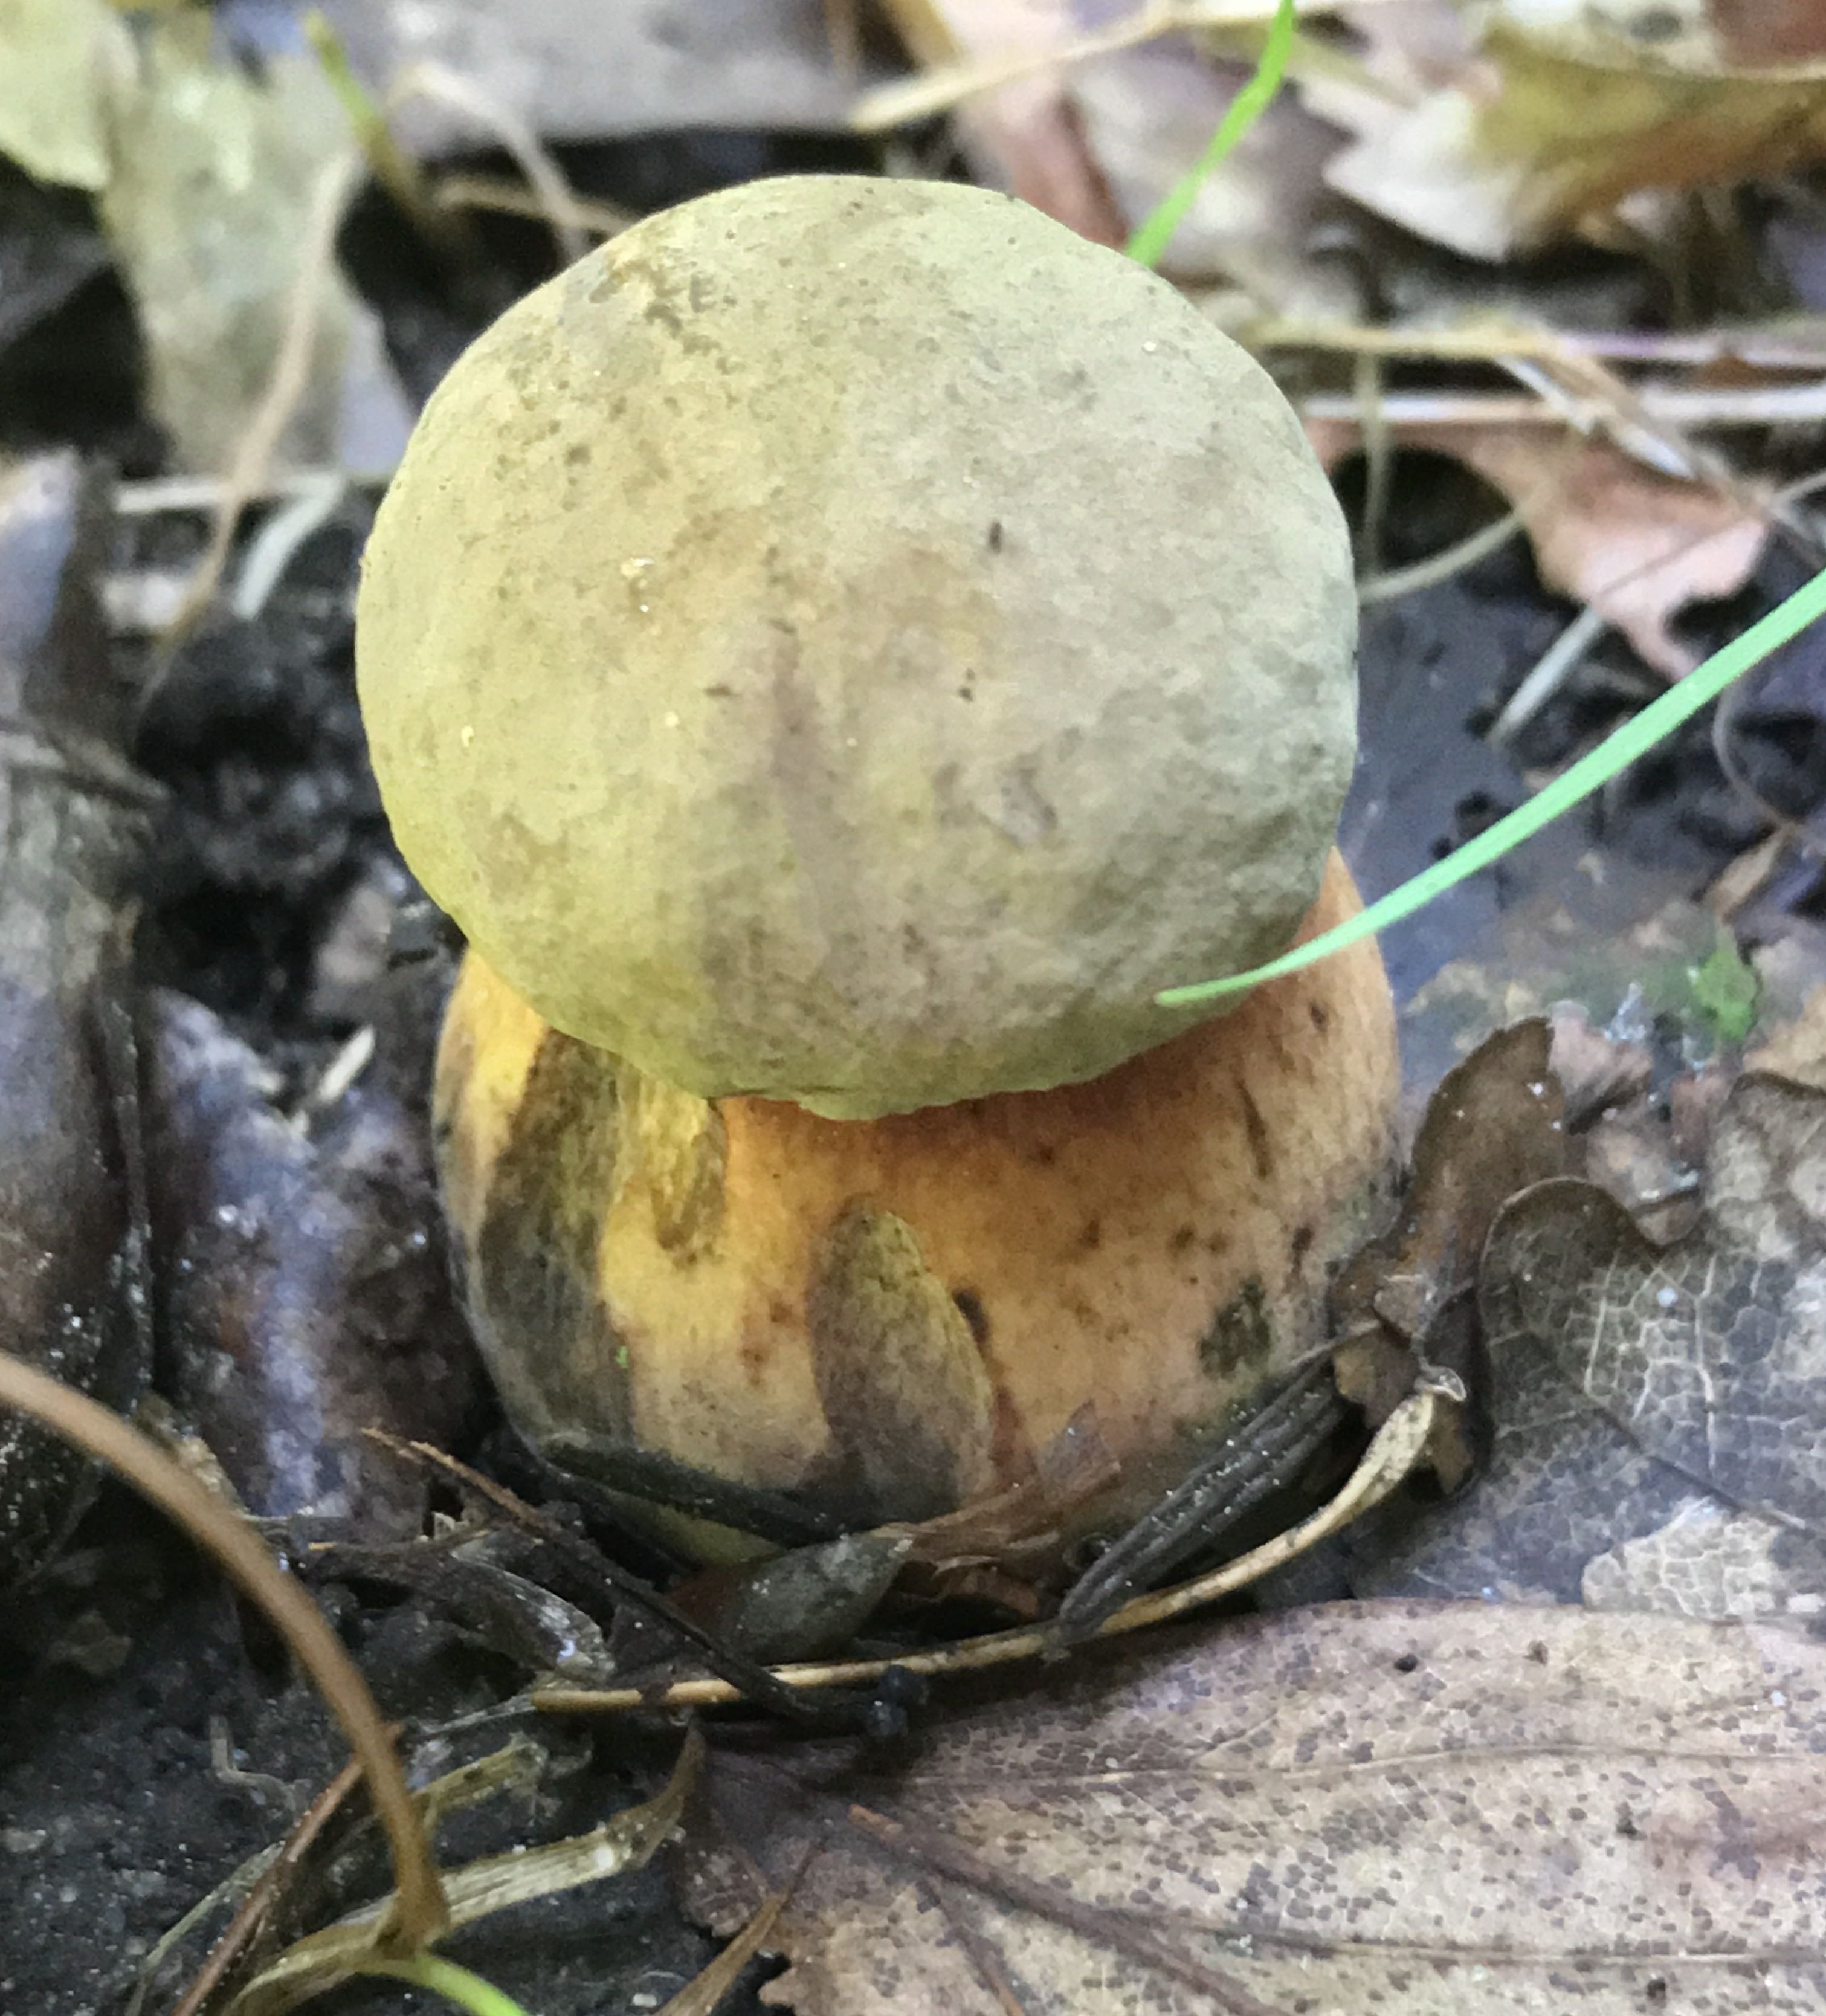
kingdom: Fungi
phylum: Basidiomycota
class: Agaricomycetes
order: Boletales
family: Boletaceae
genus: Suillellus
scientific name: Suillellus luridus
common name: netstokket indigorørhat
